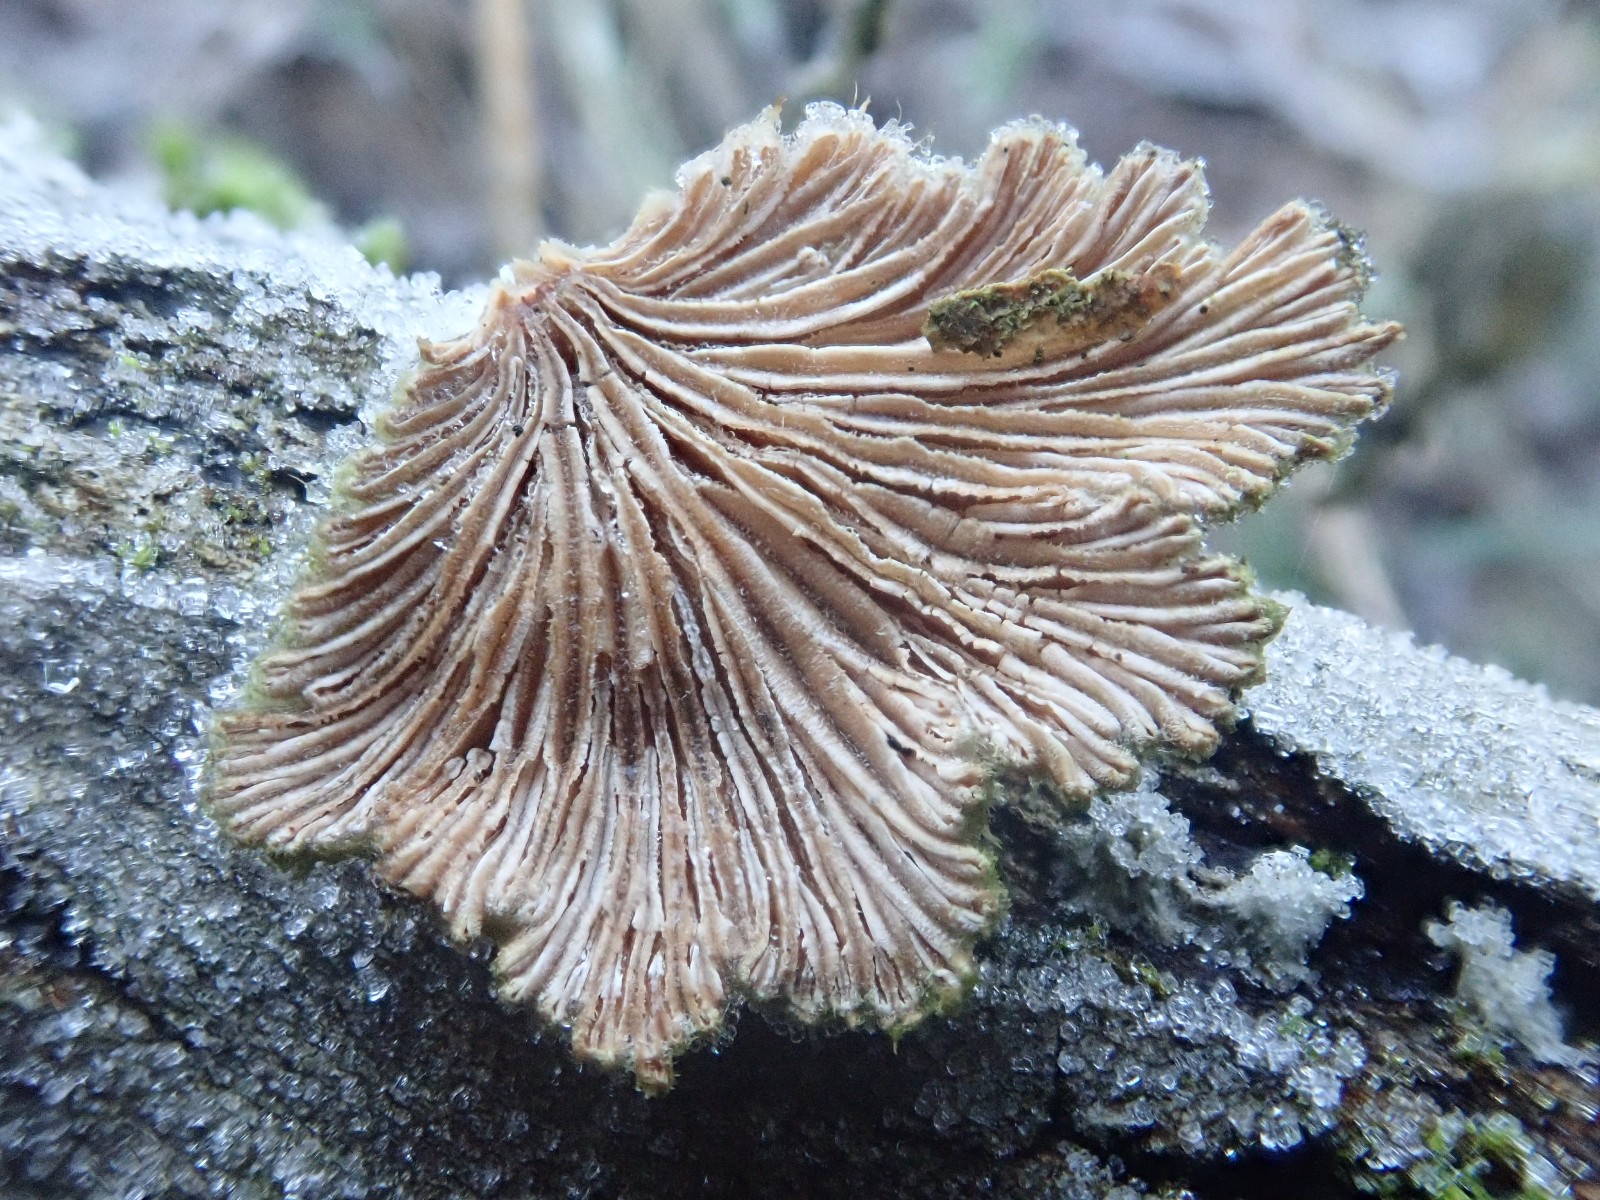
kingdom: Fungi
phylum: Basidiomycota
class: Agaricomycetes
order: Agaricales
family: Schizophyllaceae
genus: Schizophyllum
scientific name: Schizophyllum commune
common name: kløvblad
